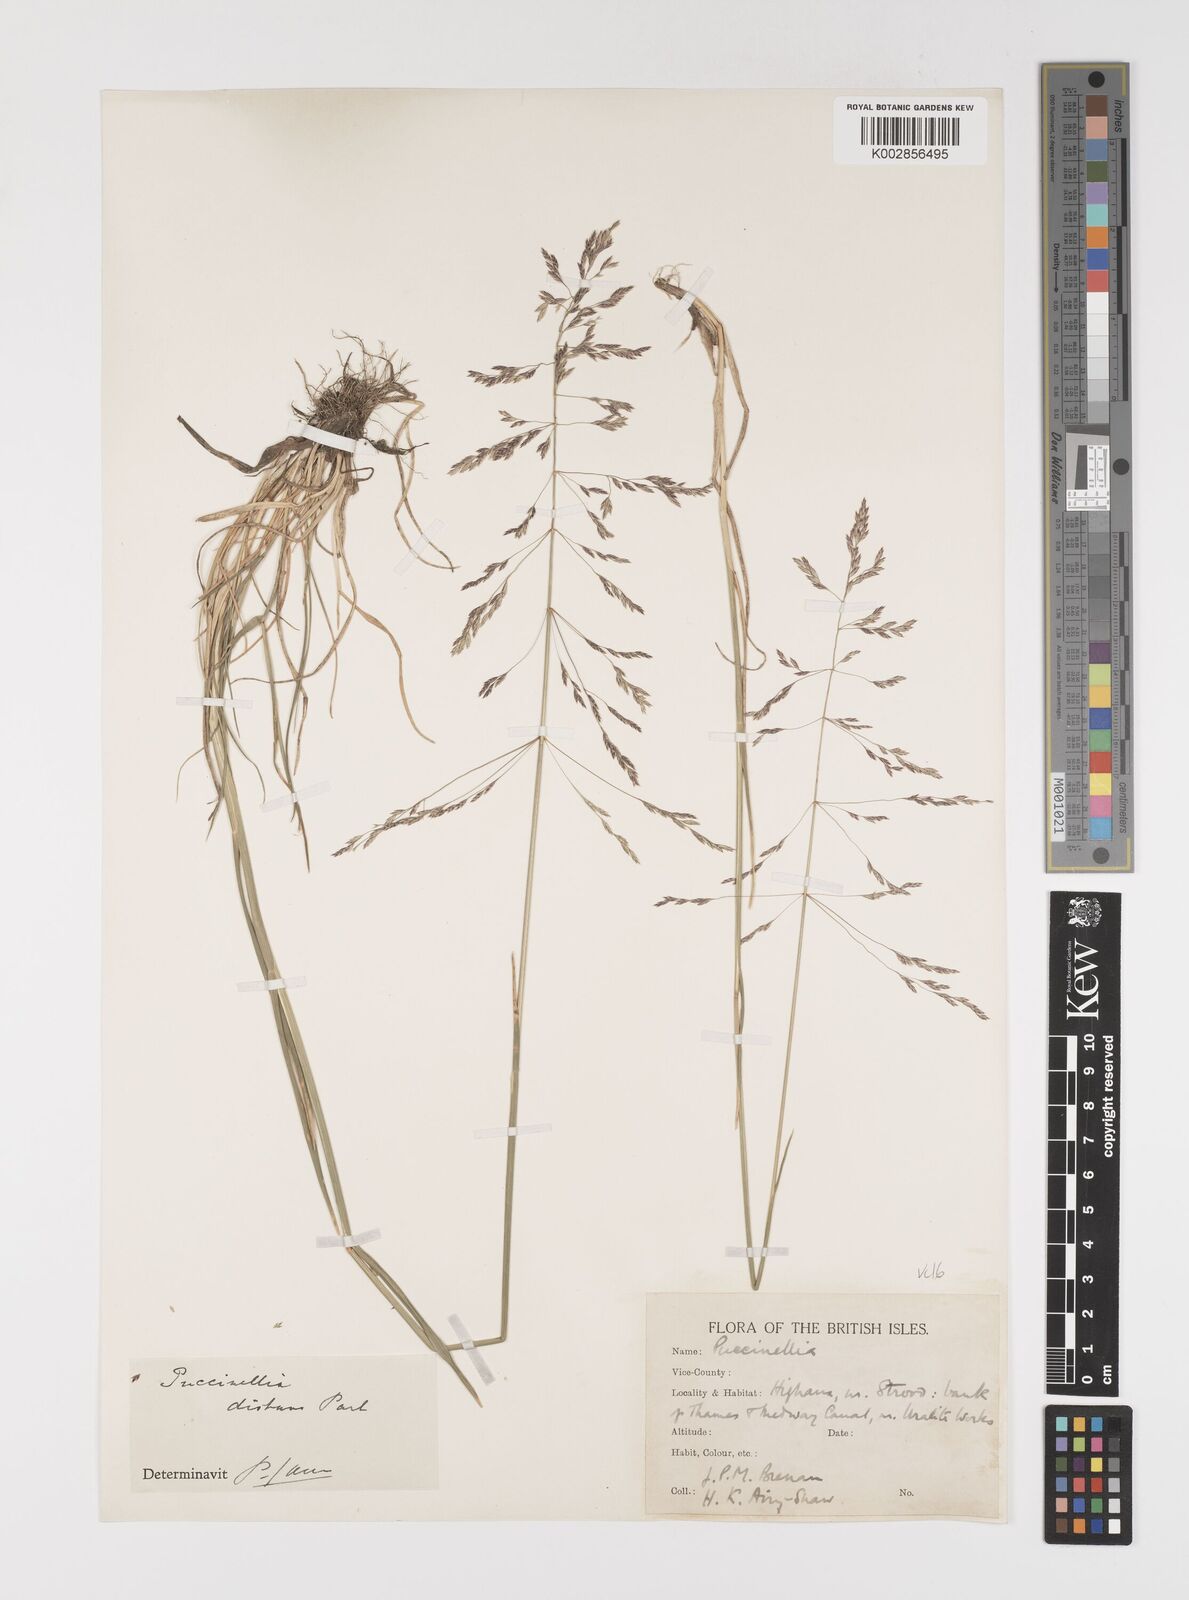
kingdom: Plantae
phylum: Tracheophyta
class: Liliopsida
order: Poales
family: Poaceae
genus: Puccinellia
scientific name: Puccinellia distans
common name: Weeping alkaligrass
